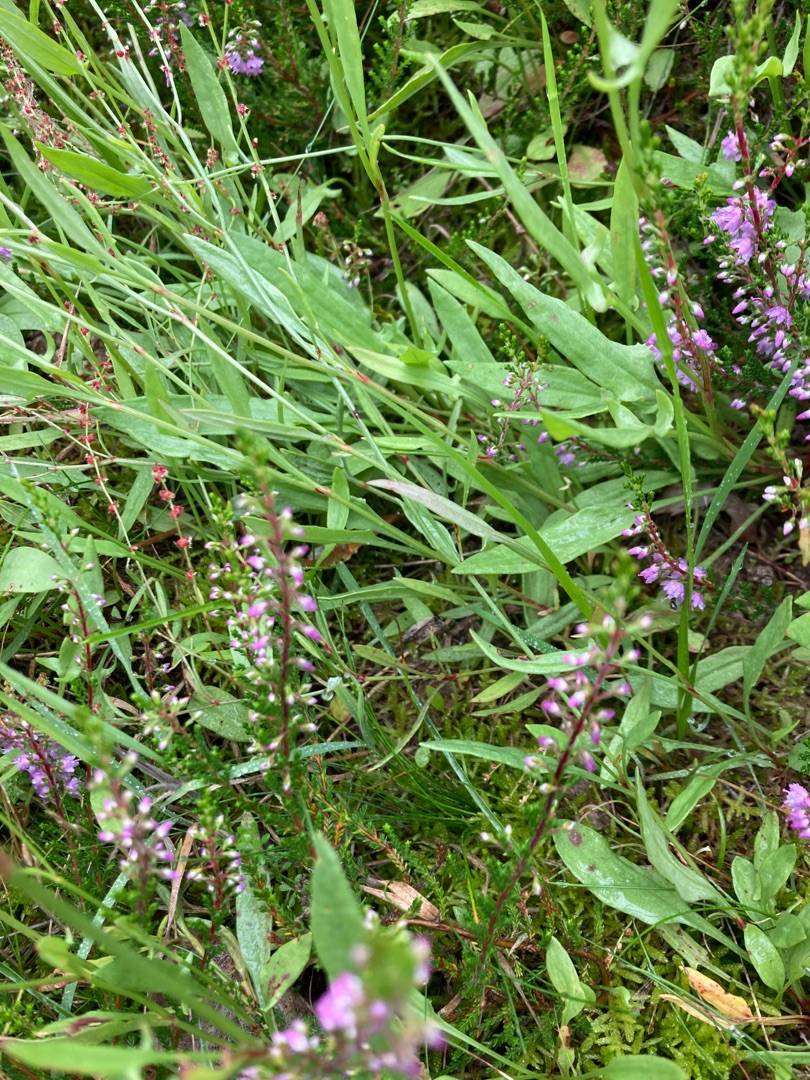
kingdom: Plantae
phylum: Tracheophyta
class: Magnoliopsida
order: Ericales
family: Ericaceae
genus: Calluna
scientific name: Calluna vulgaris
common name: Hedelyng
